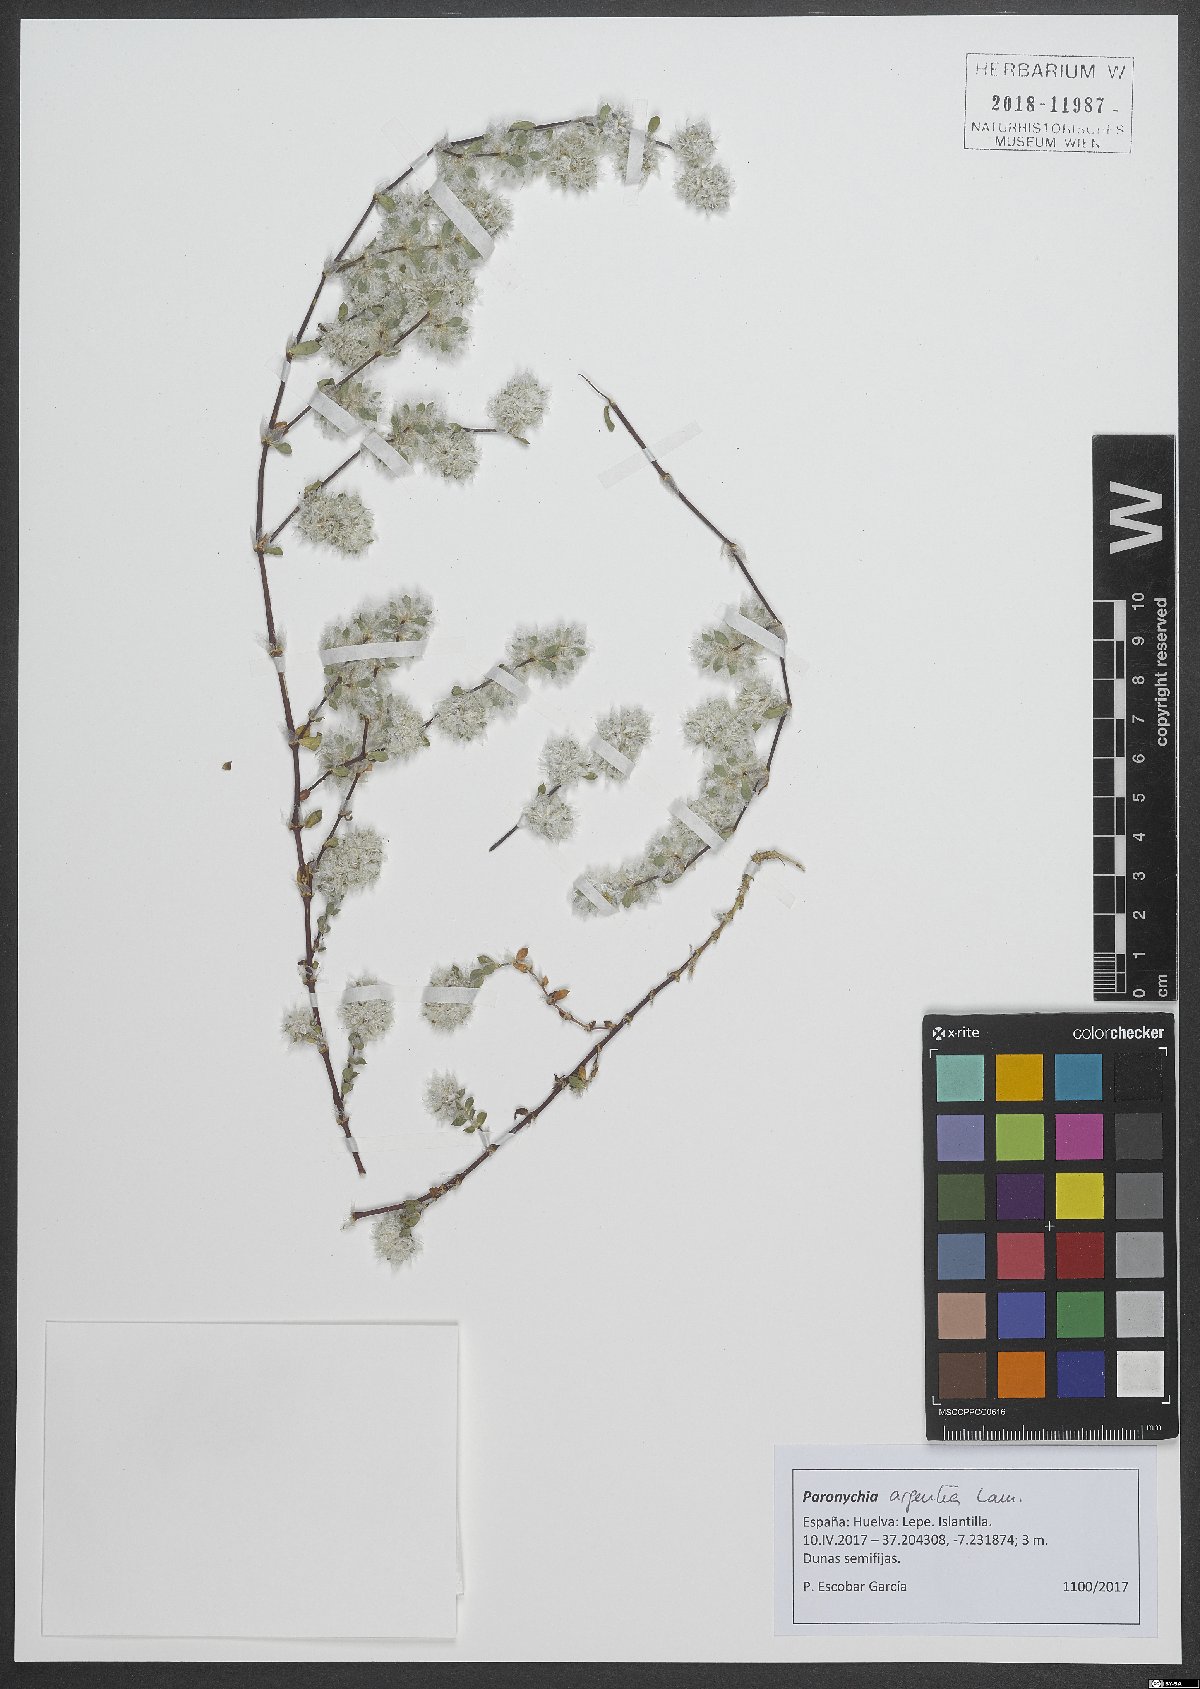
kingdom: Plantae
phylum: Tracheophyta
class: Magnoliopsida
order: Caryophyllales
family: Caryophyllaceae
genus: Paronychia
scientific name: Paronychia argentea
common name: Silver nailroot
